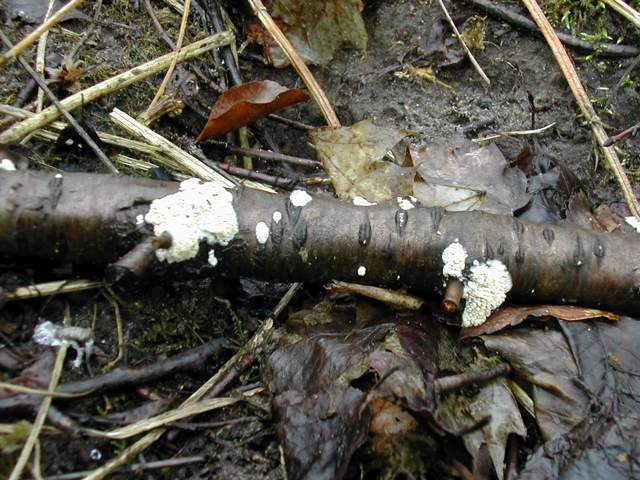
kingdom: Fungi
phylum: Basidiomycota
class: Agaricomycetes
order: Hymenochaetales
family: Schizoporaceae
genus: Xylodon
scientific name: Xylodon radula
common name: grovtandet kalkskind
